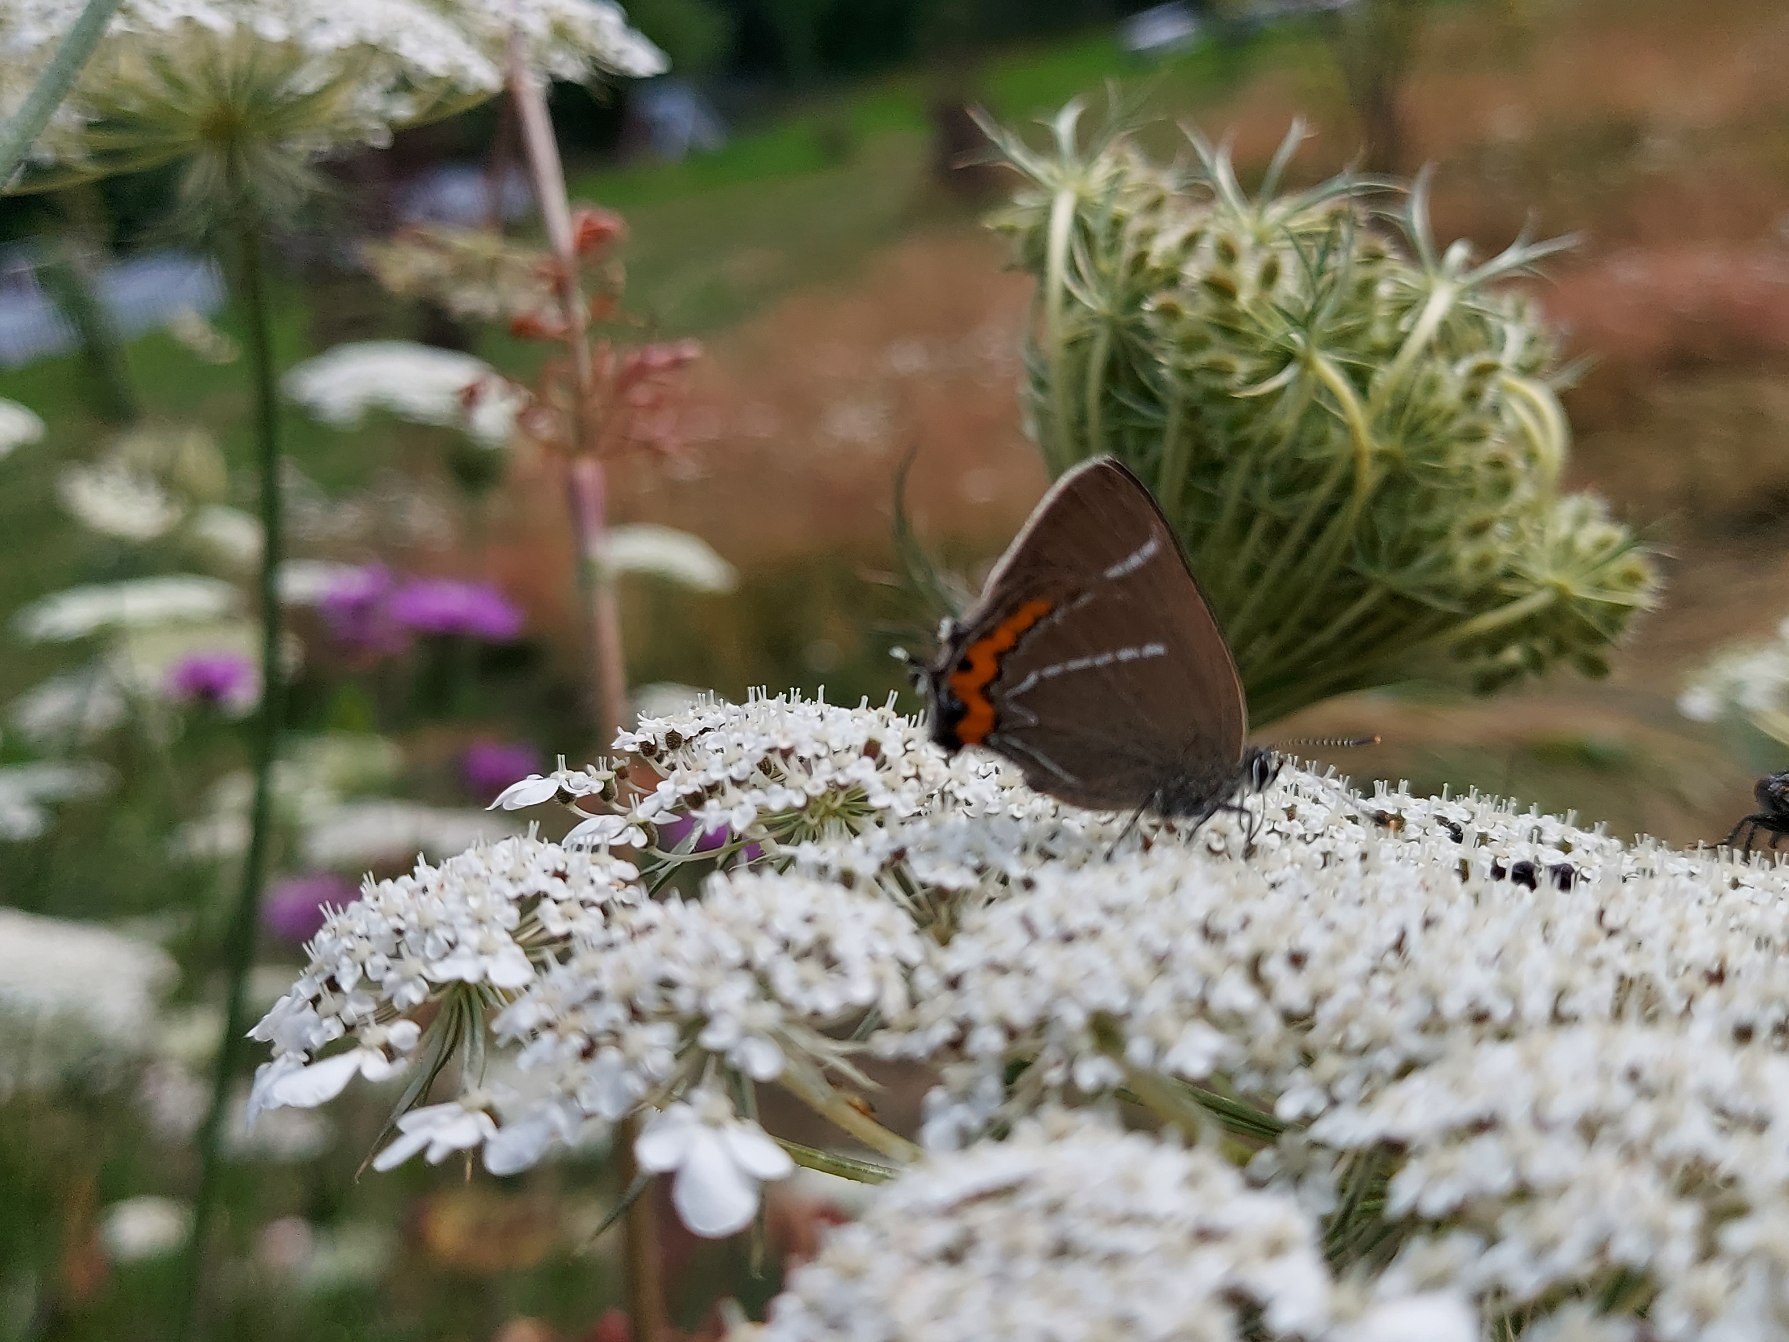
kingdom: Animalia
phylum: Arthropoda
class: Insecta
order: Lepidoptera
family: Lycaenidae
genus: Satyrium
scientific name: Satyrium w-album
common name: Det hvide W
